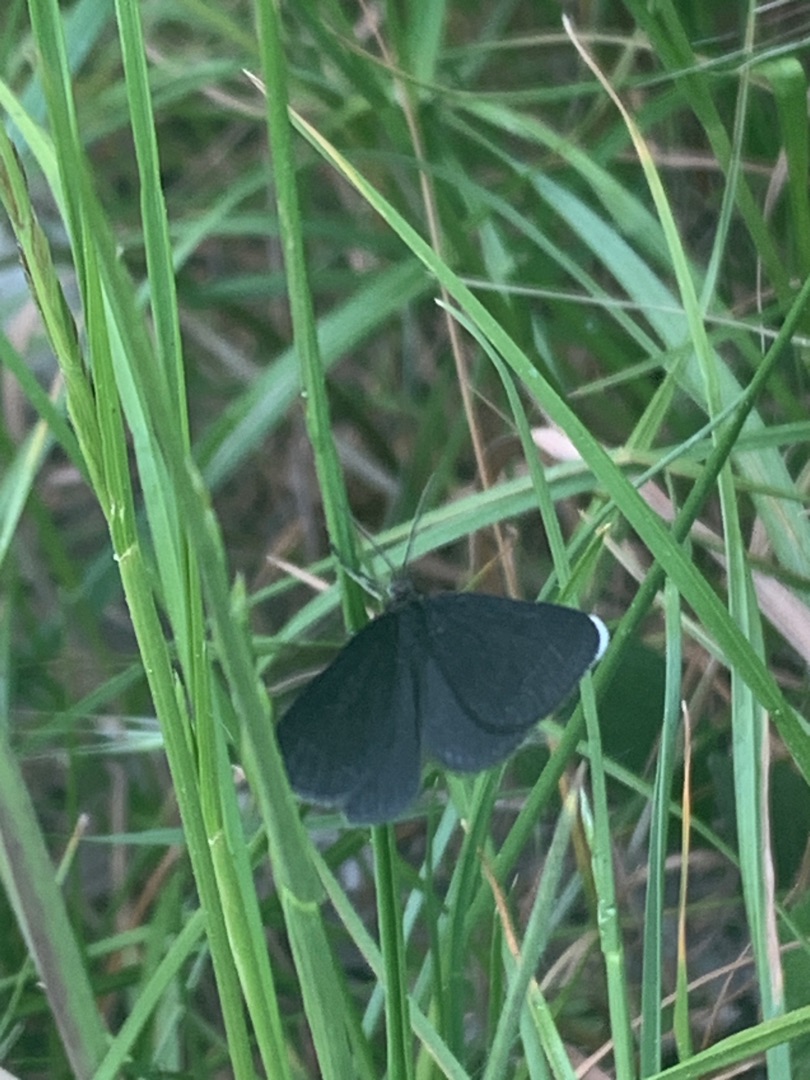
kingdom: Animalia
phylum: Arthropoda
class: Insecta
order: Lepidoptera
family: Geometridae
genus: Odezia
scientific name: Odezia atrata
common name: Sort måler
